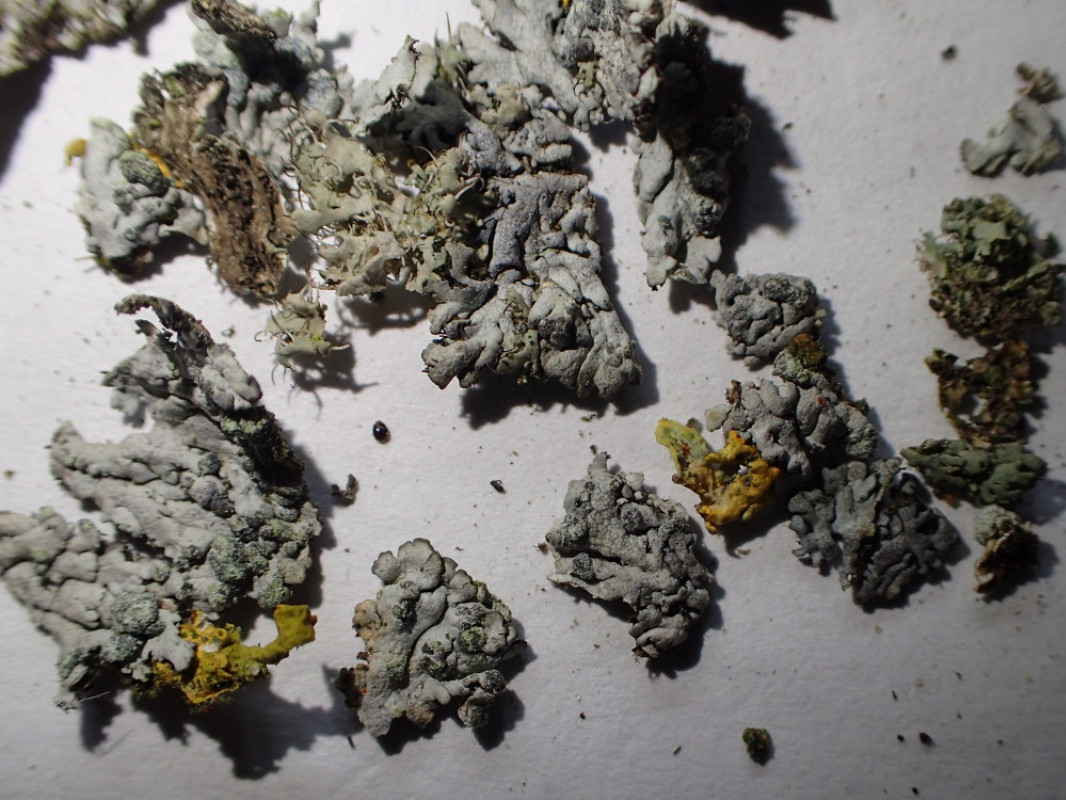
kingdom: Fungi
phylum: Ascomycota
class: Lecanoromycetes
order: Caliciales
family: Physciaceae
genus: Physcia
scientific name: Physcia caesia
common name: blågrå rosetlav
